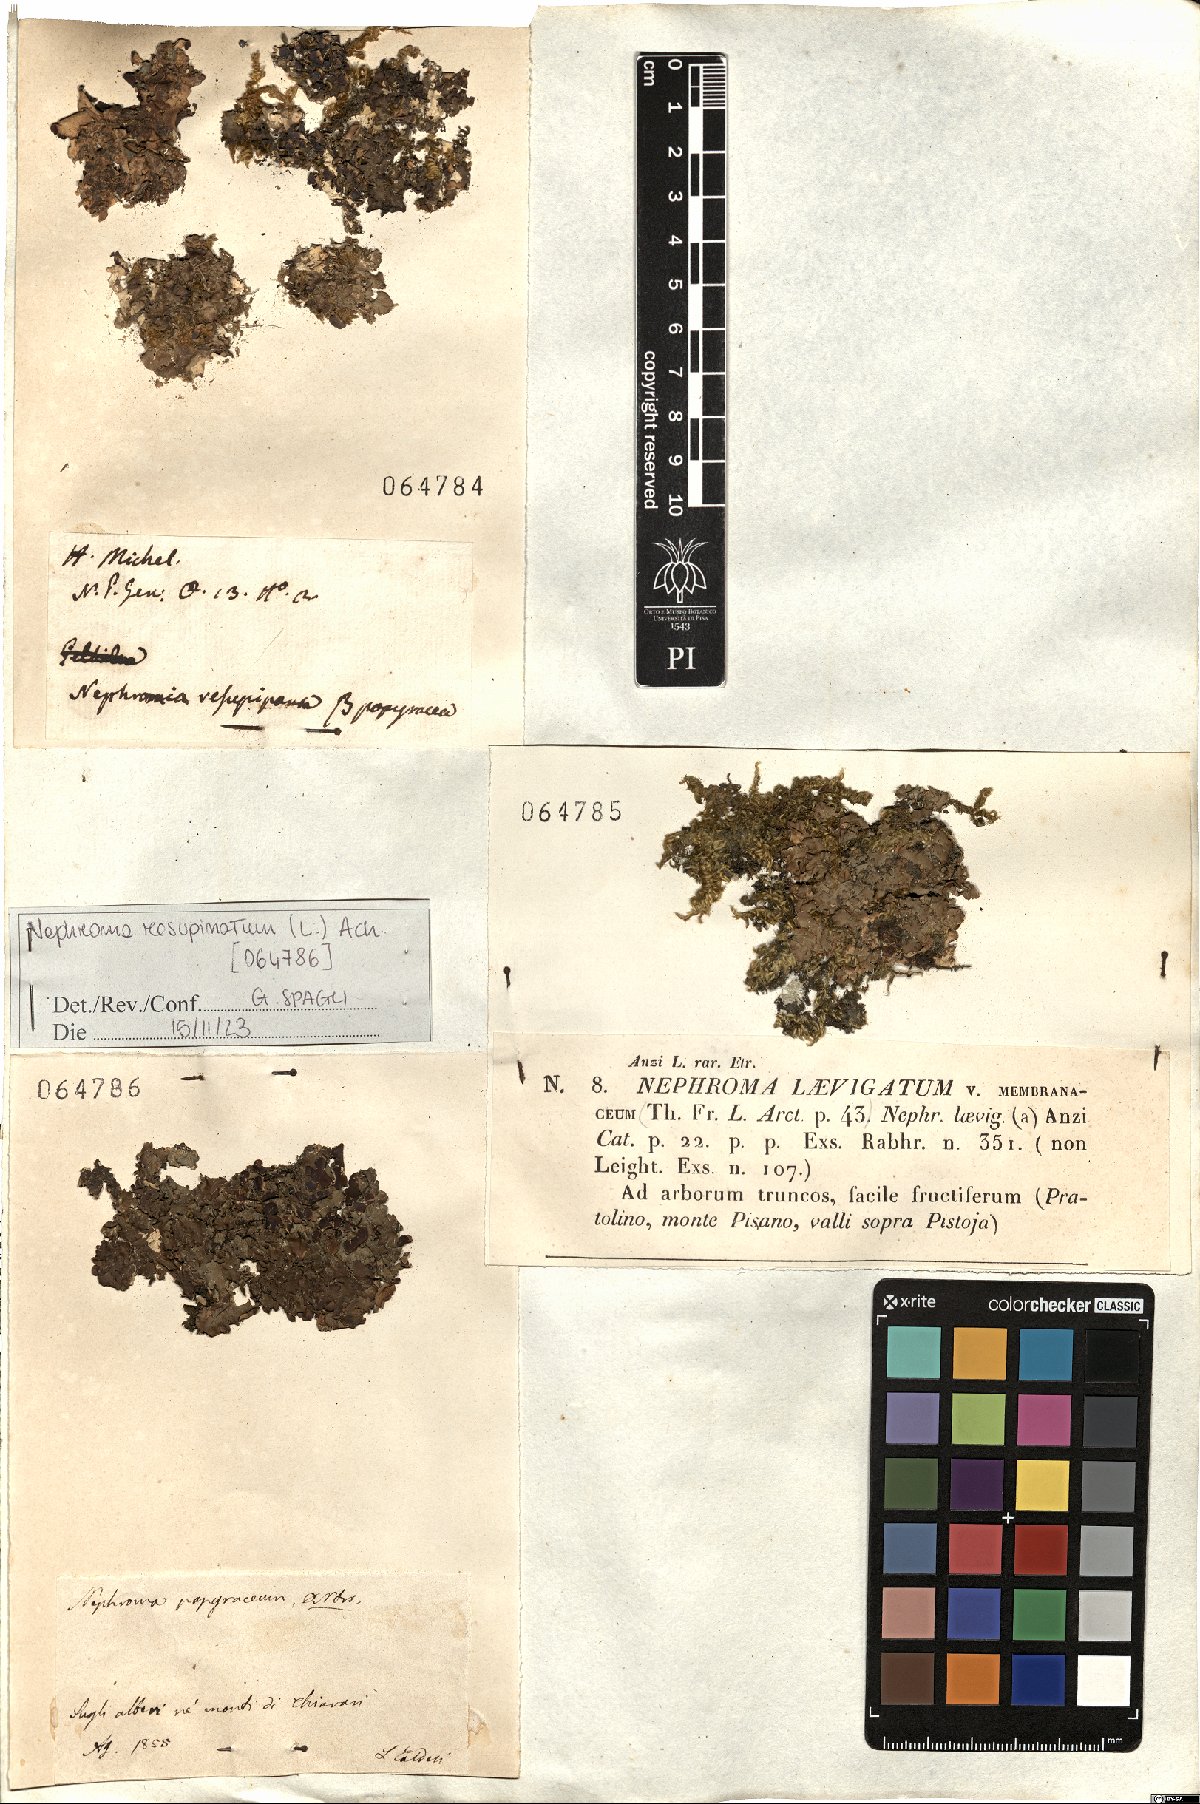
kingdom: Fungi
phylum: Ascomycota
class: Lecanoromycetes
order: Peltigerales
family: Nephromataceae
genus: Nephroma
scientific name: Nephroma laevigatum
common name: Mustard kidney lichen
